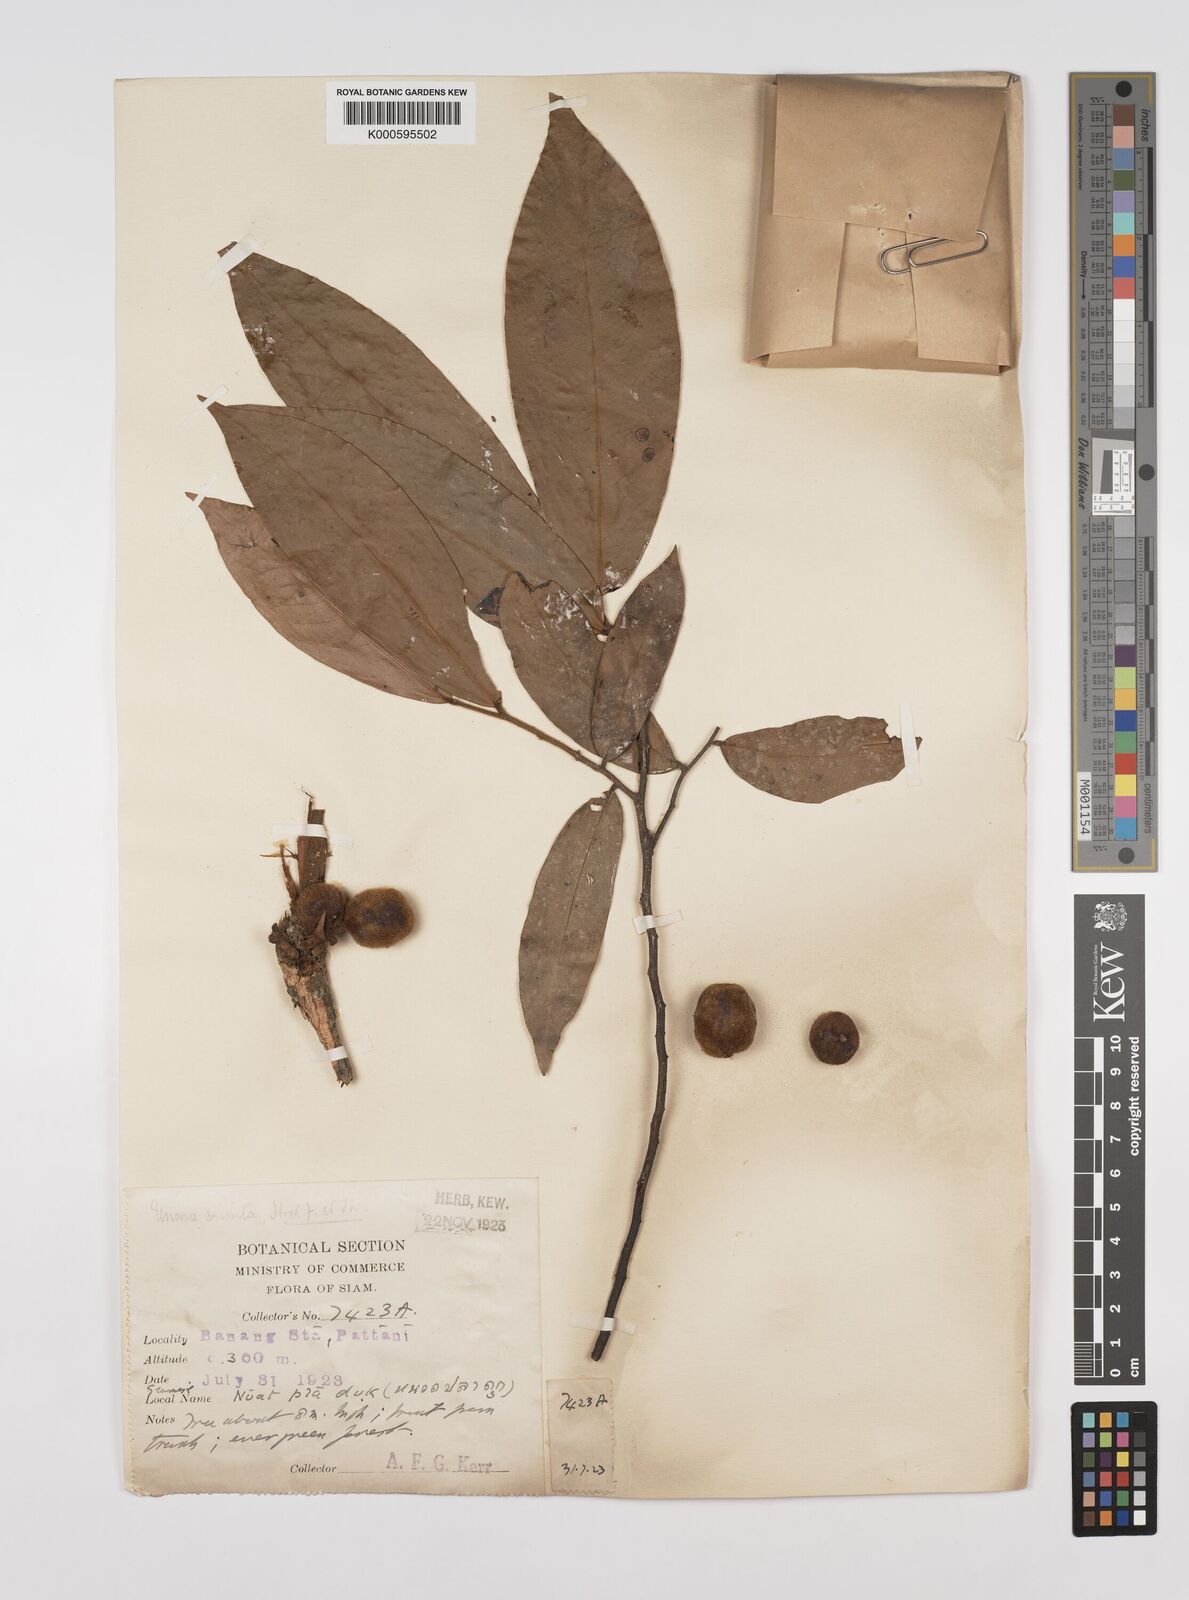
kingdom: Plantae
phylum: Tracheophyta
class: Magnoliopsida
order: Magnoliales
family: Annonaceae
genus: Polyalthia
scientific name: Polyalthia stenopetala
